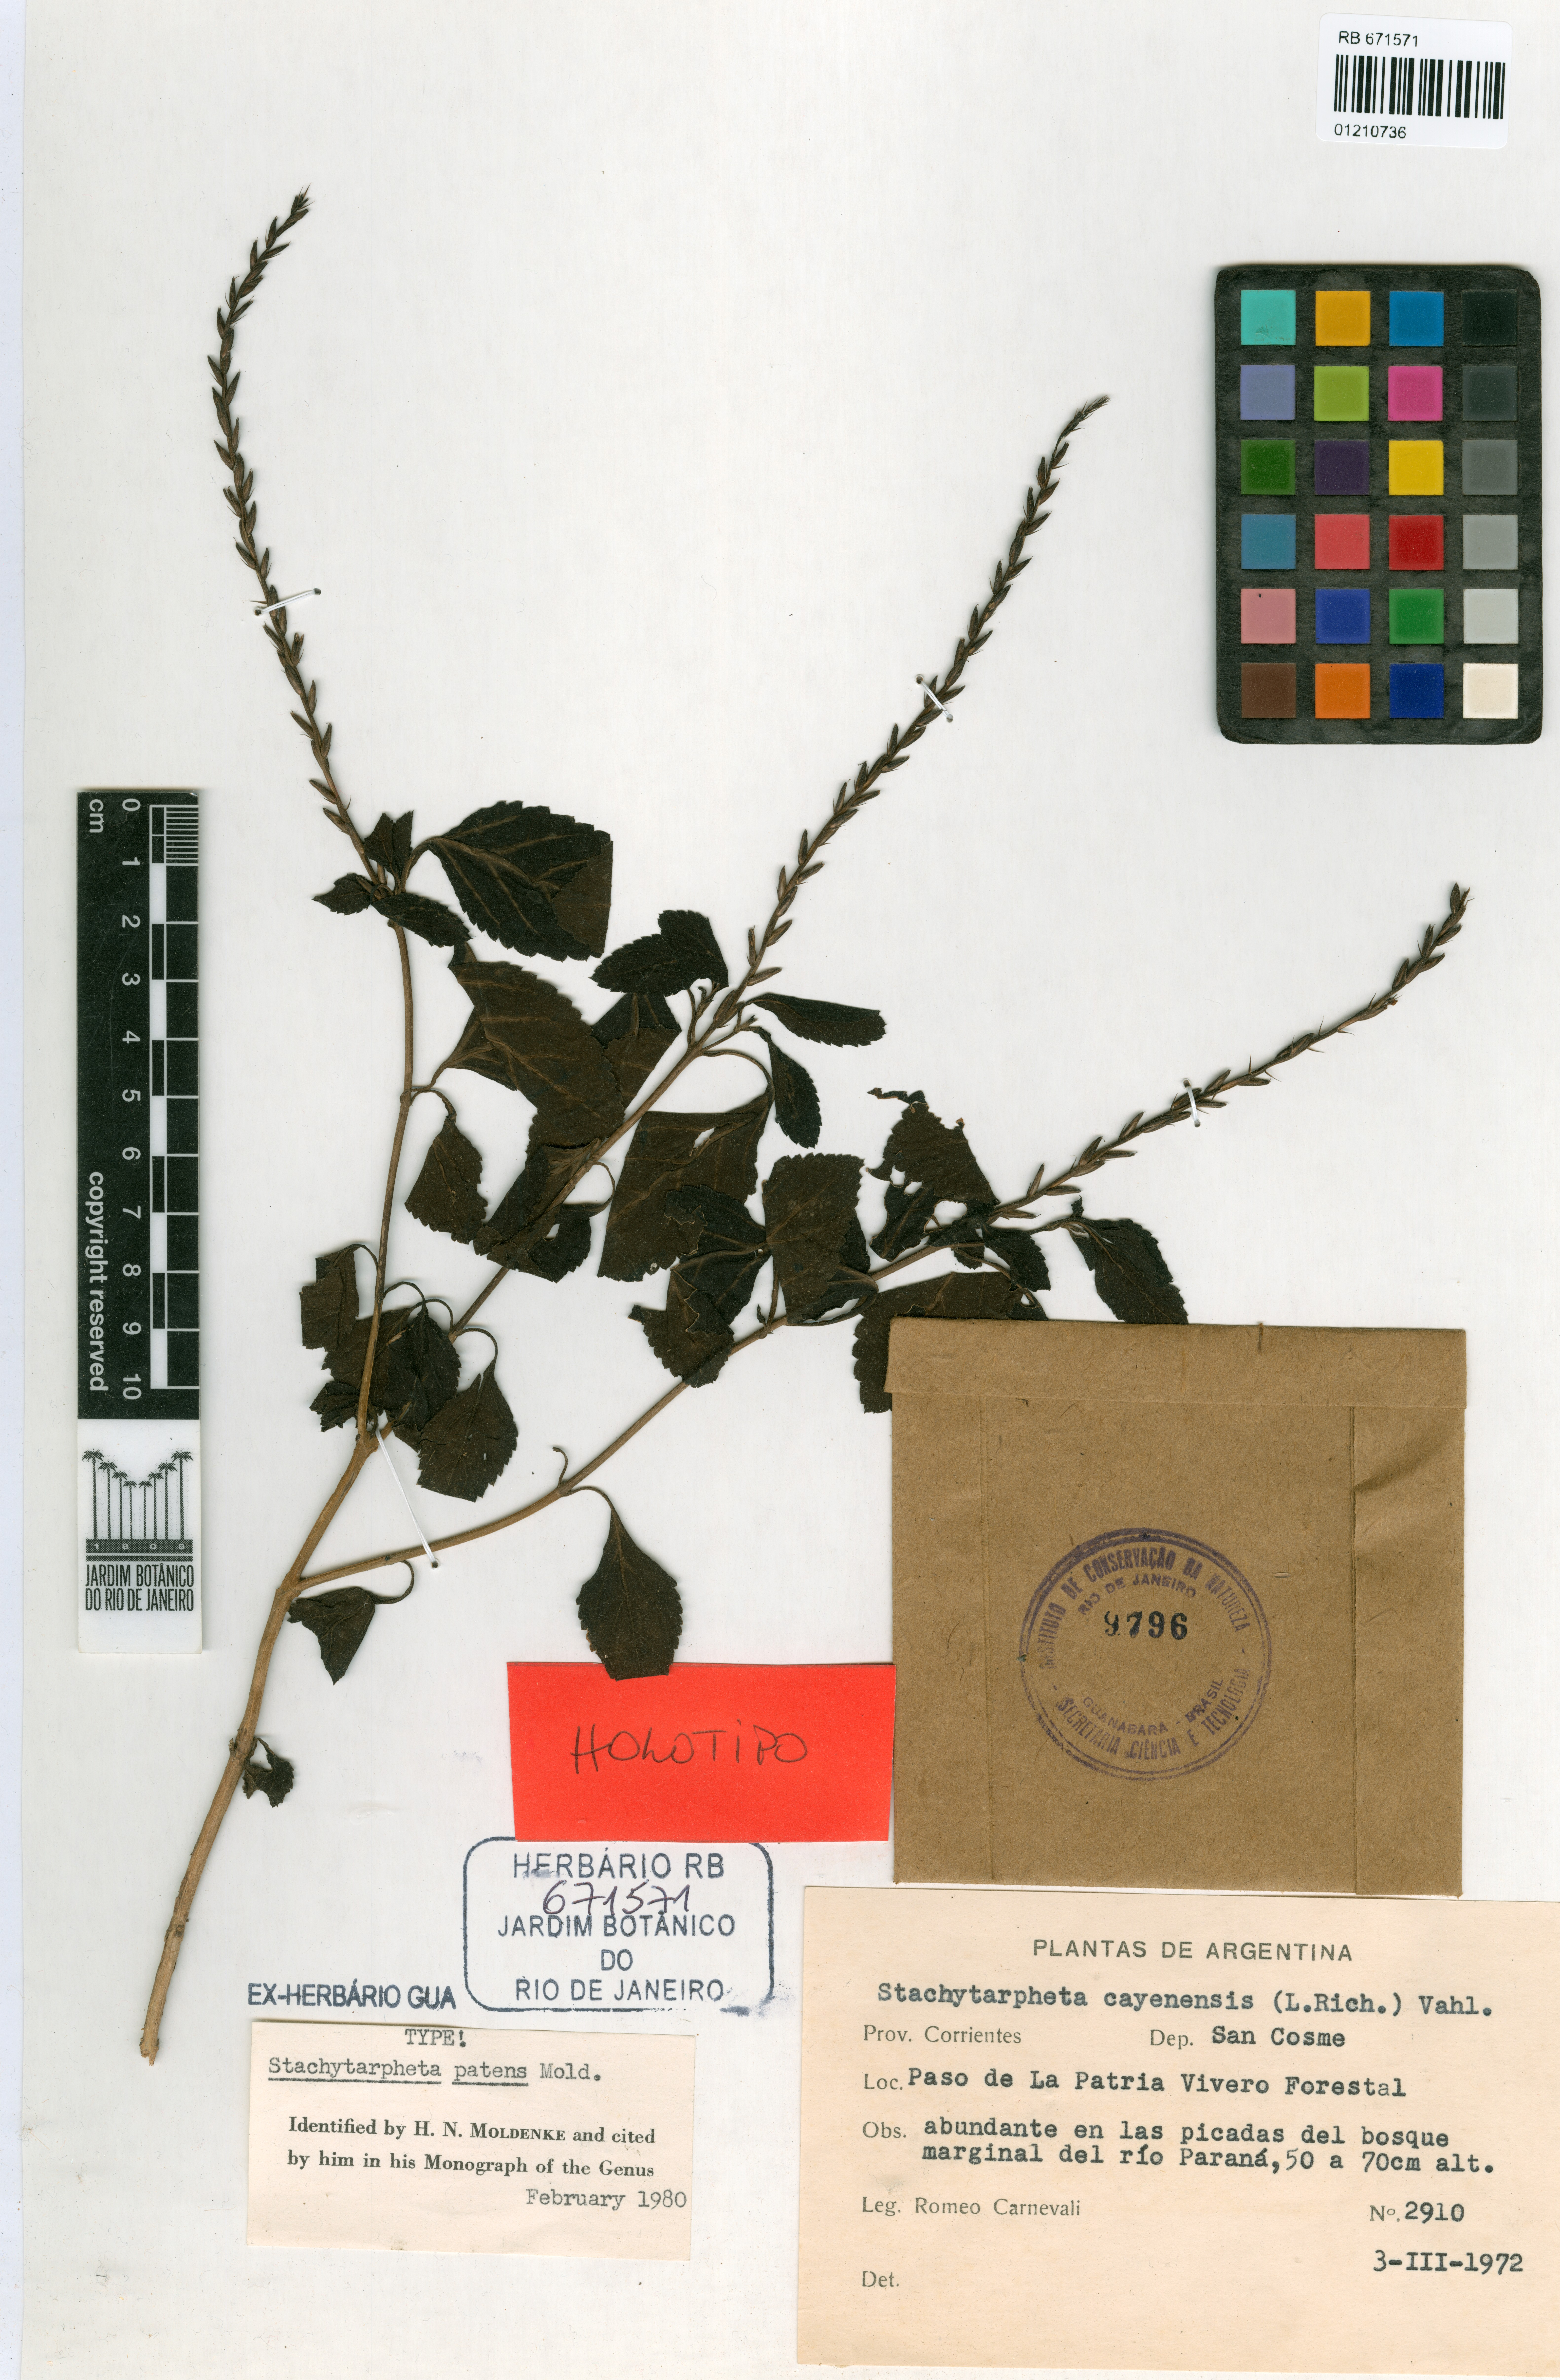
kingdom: Plantae
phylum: Tracheophyta
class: Magnoliopsida
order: Lamiales
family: Verbenaceae
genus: Stachytarpheta
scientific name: Stachytarpheta cayennensis
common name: Cayenne porterweed
